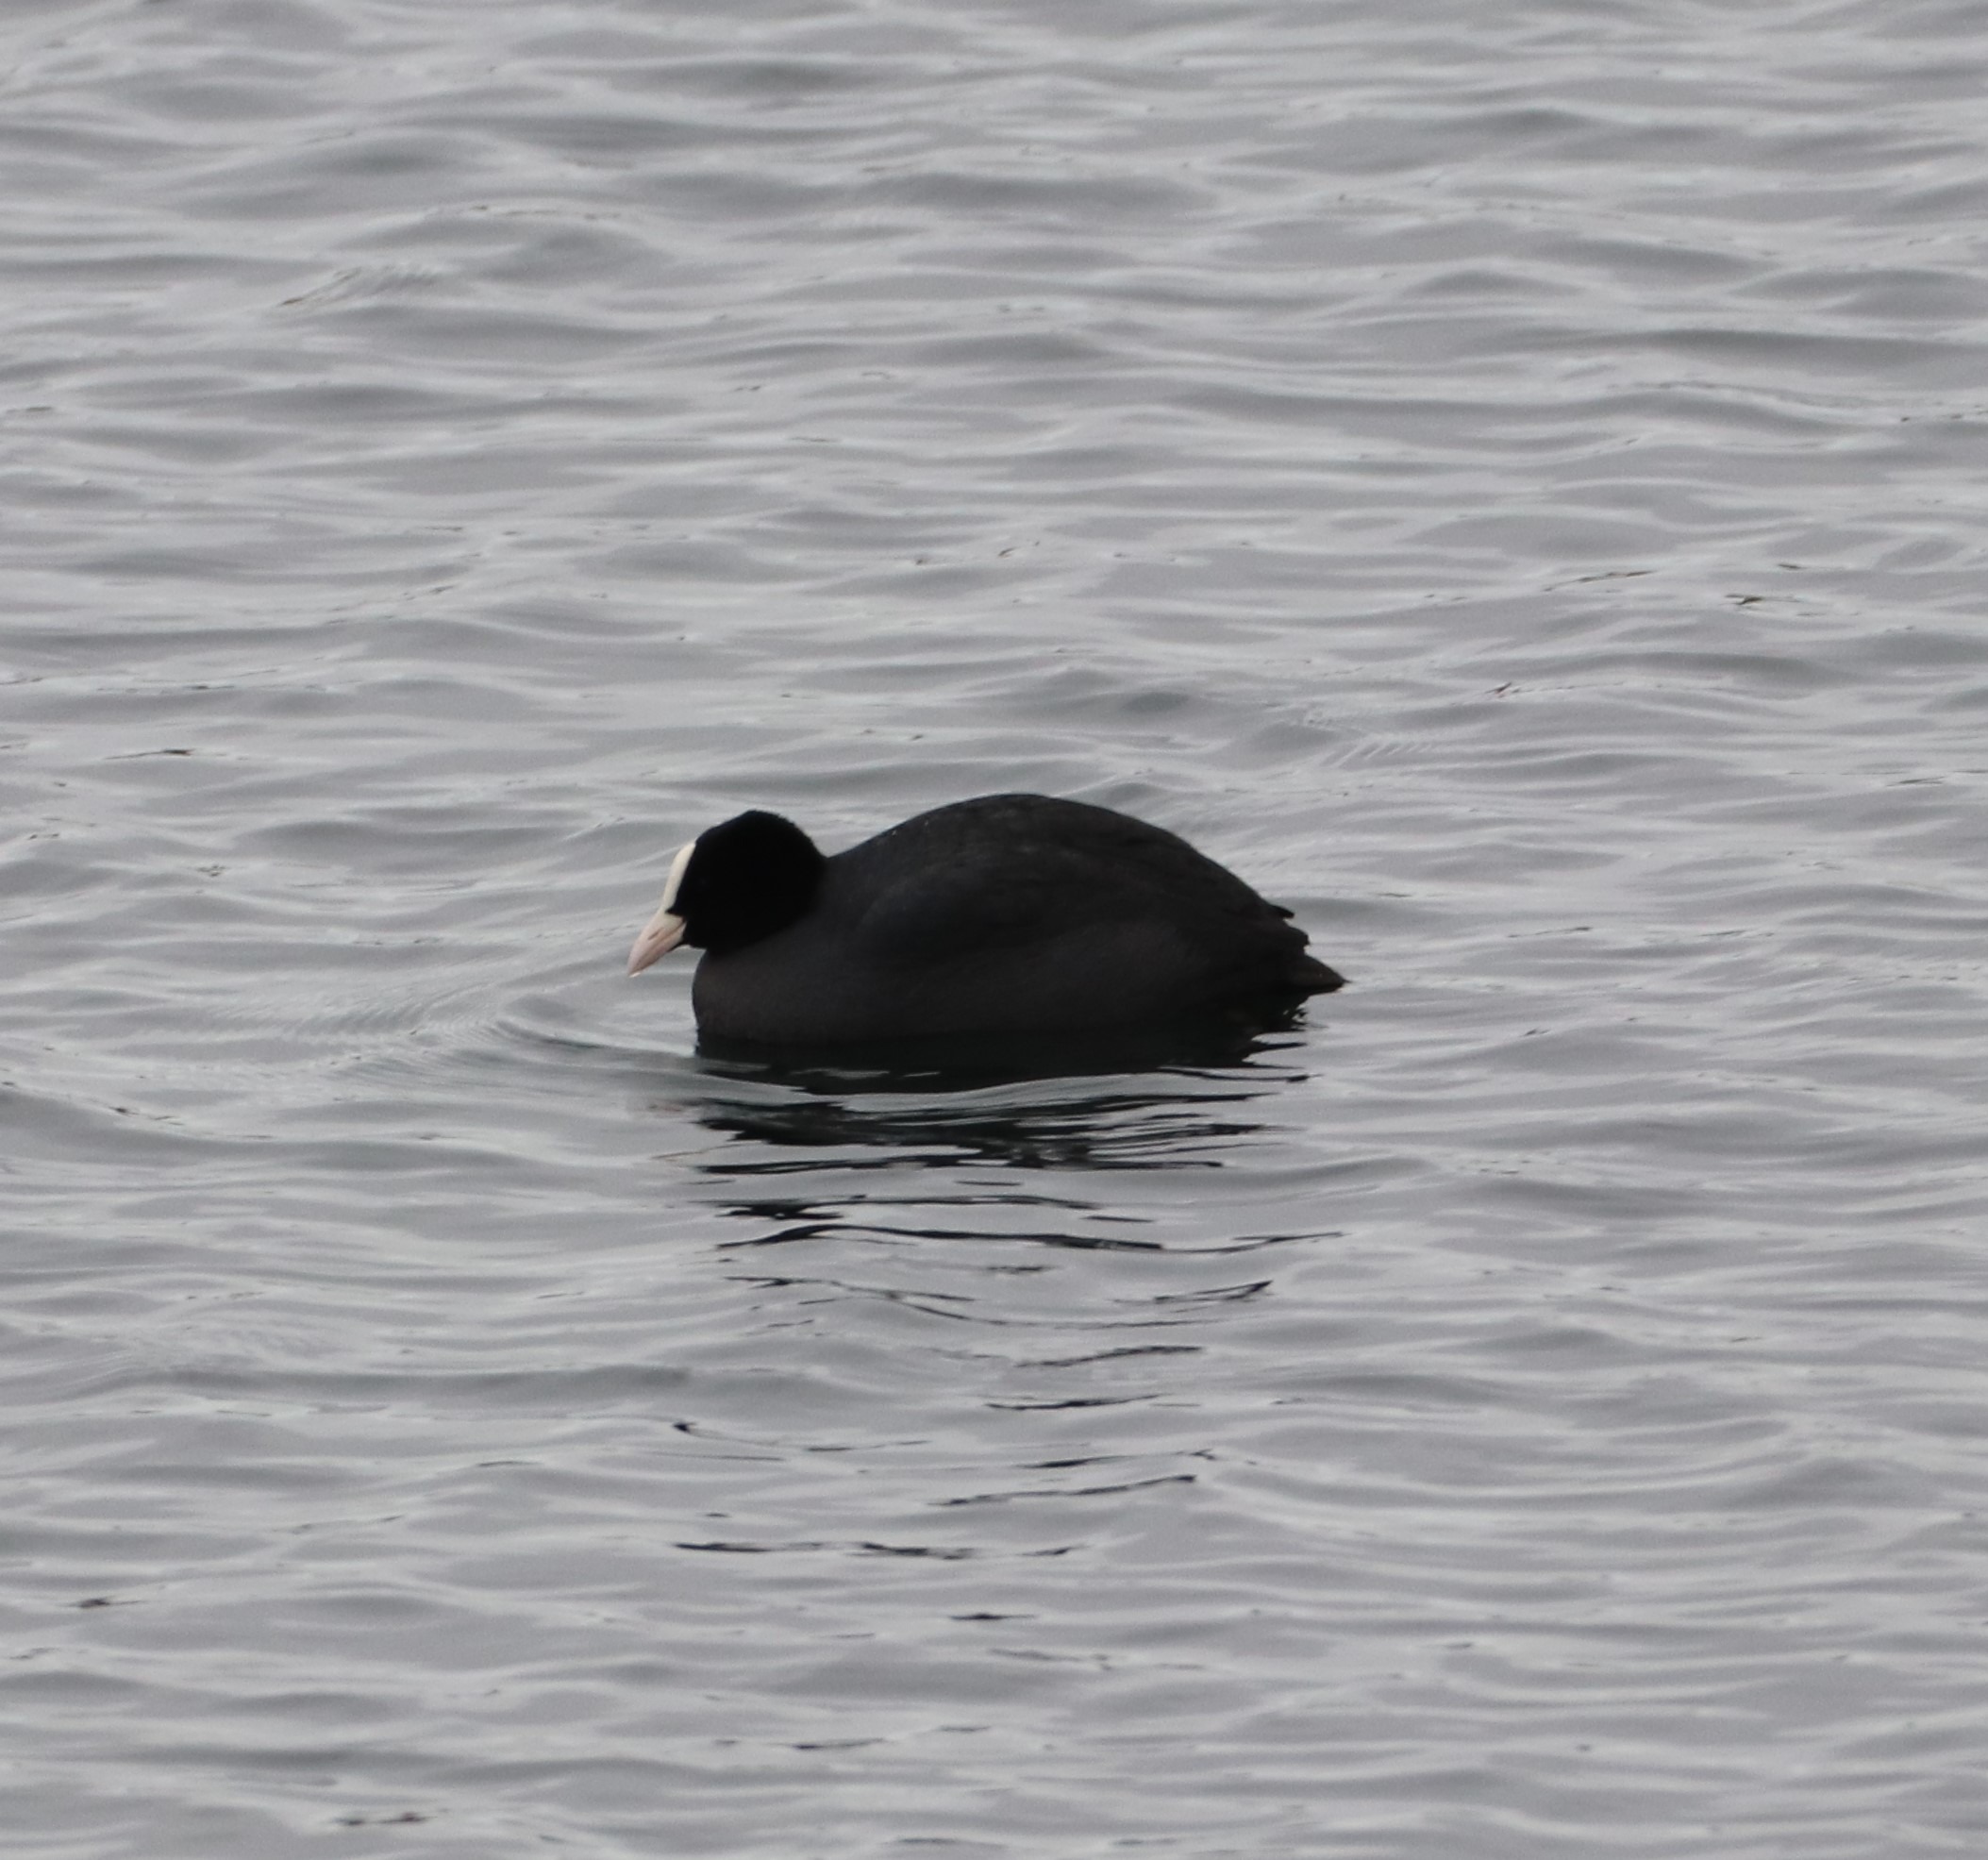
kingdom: Animalia
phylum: Chordata
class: Aves
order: Gruiformes
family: Rallidae
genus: Fulica
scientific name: Fulica atra
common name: Blishøne
